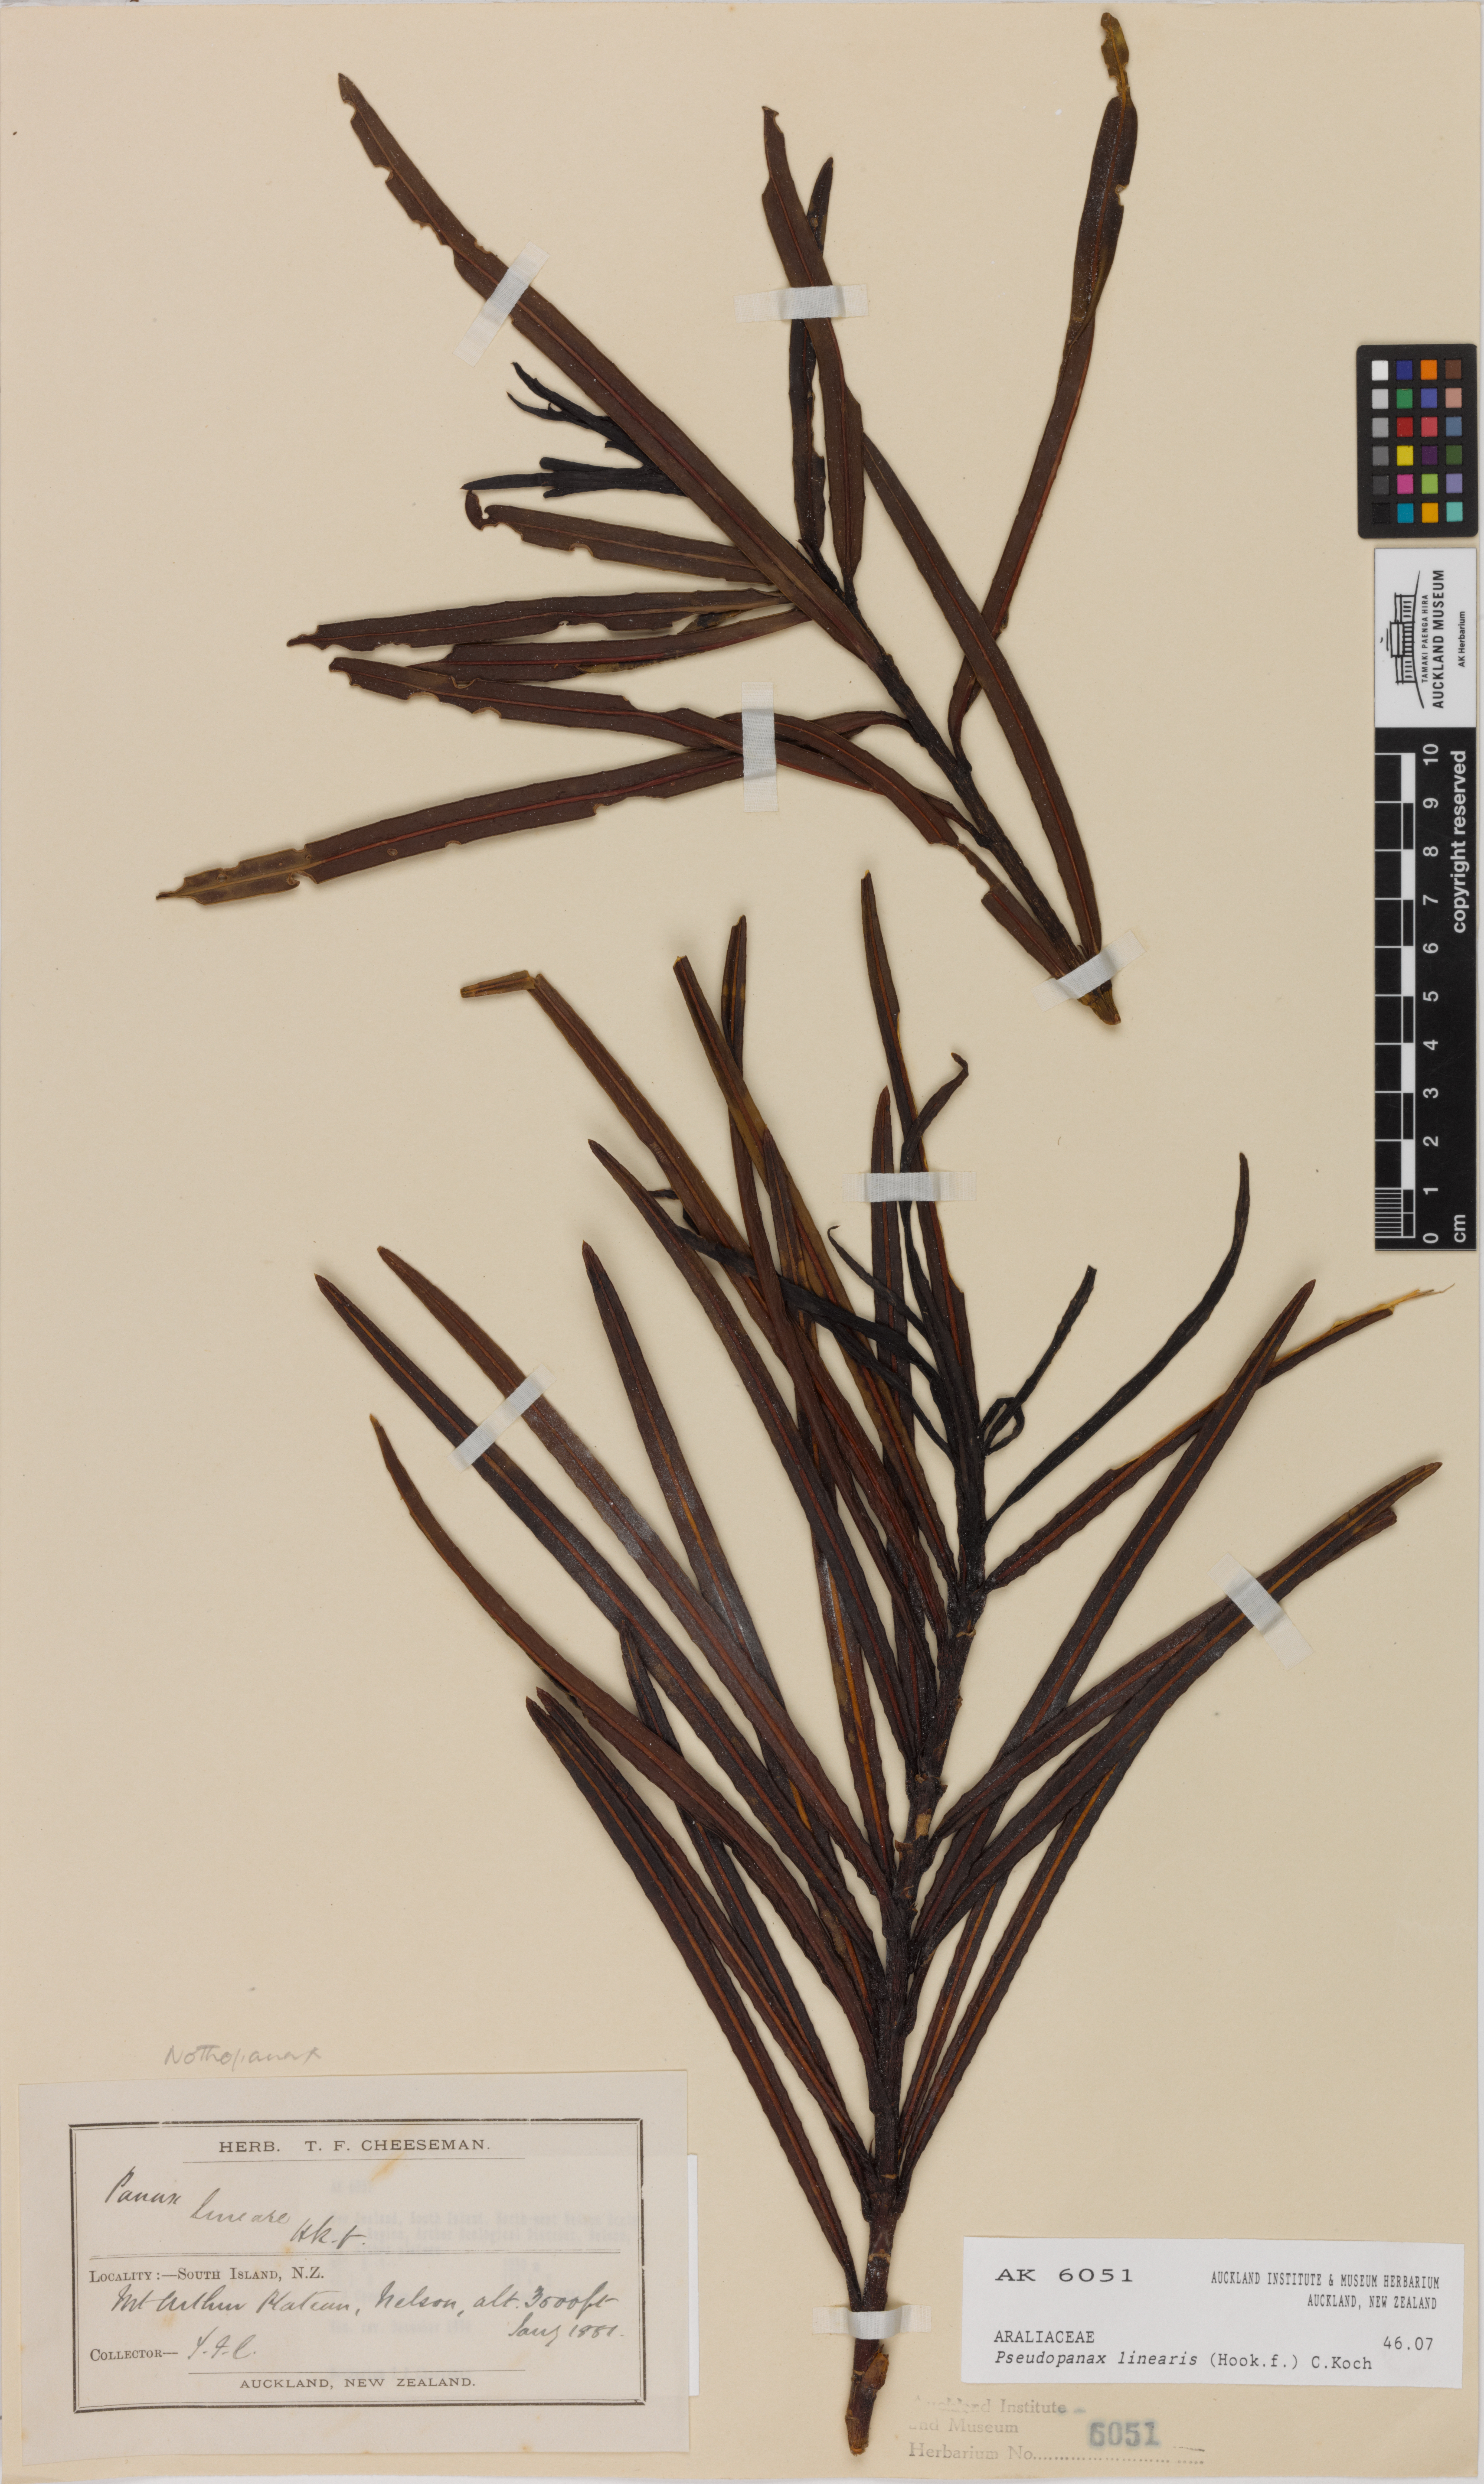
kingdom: Plantae
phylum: Tracheophyta
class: Magnoliopsida
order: Apiales
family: Araliaceae
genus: Pseudopanax
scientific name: Pseudopanax linearis
